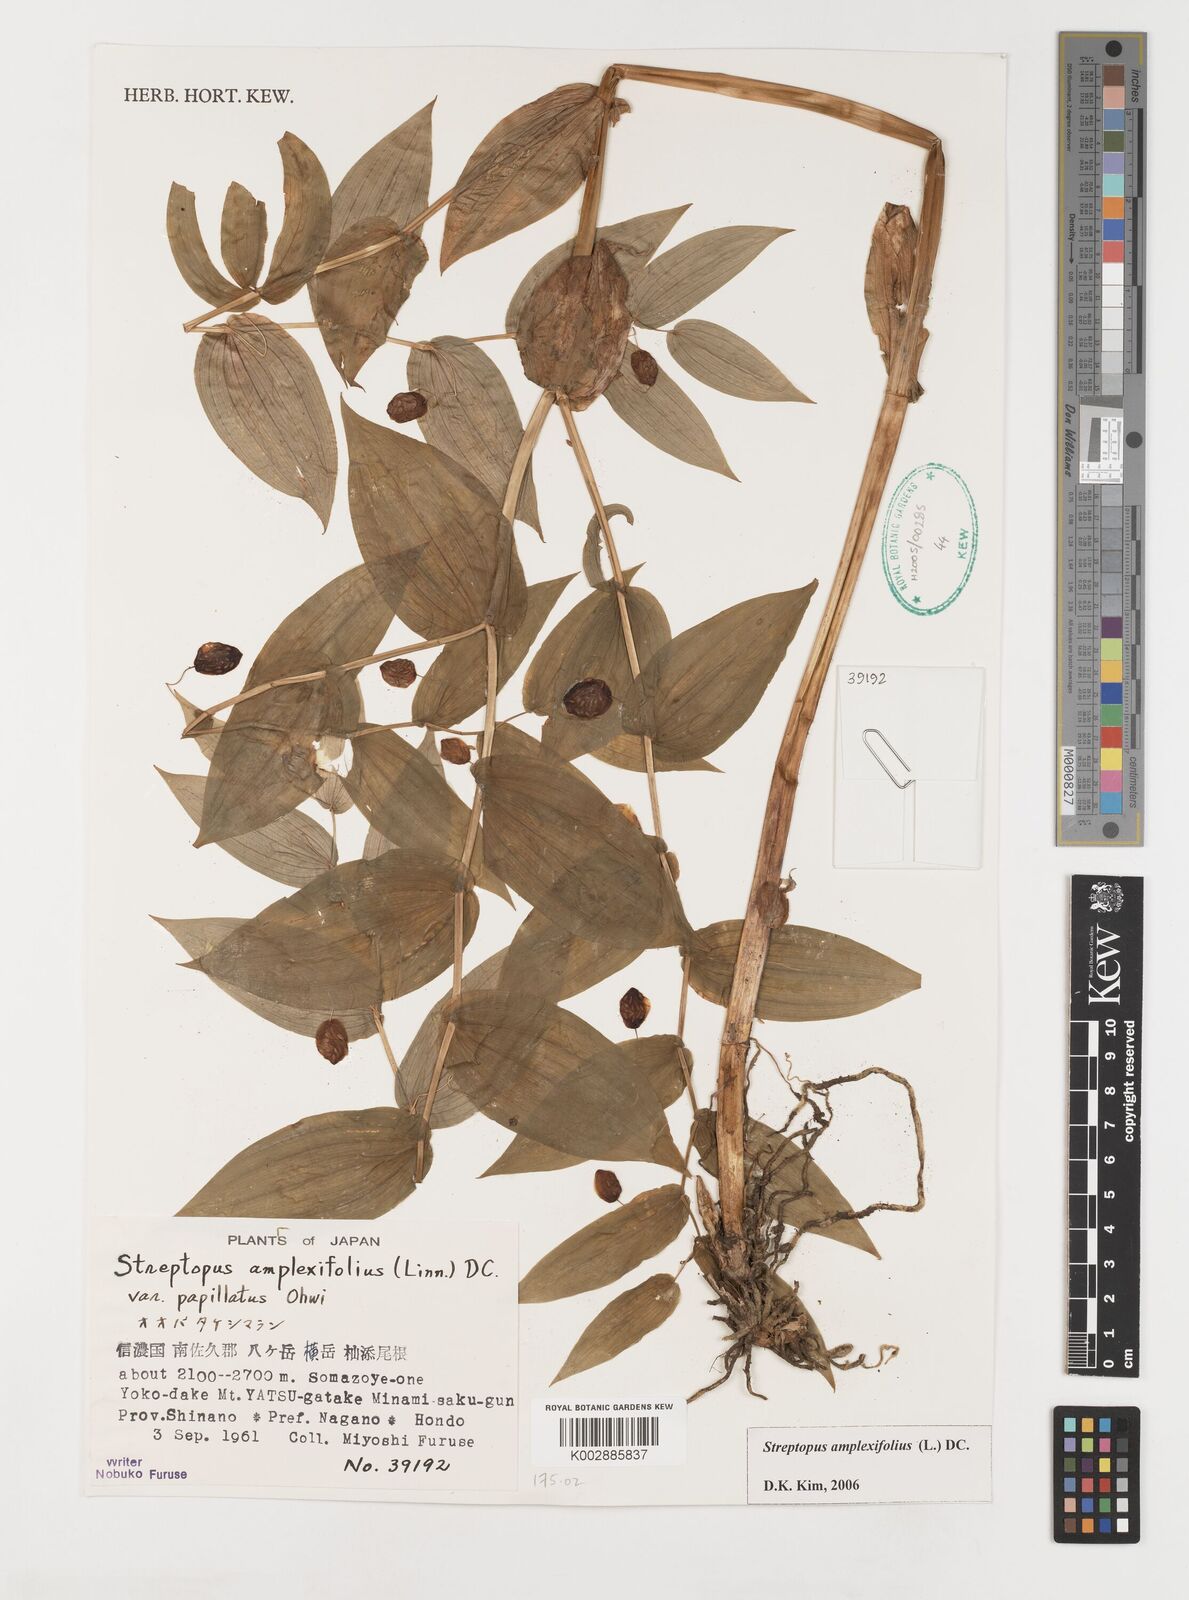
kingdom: Plantae
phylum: Tracheophyta
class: Liliopsida
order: Liliales
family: Liliaceae
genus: Streptopus
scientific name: Streptopus amplexifolius
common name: Clasp twisted stalk
